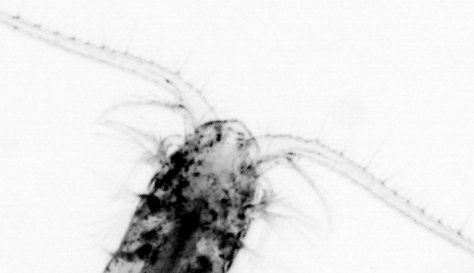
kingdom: Animalia
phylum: Arthropoda
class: Copepoda
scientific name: Copepoda
